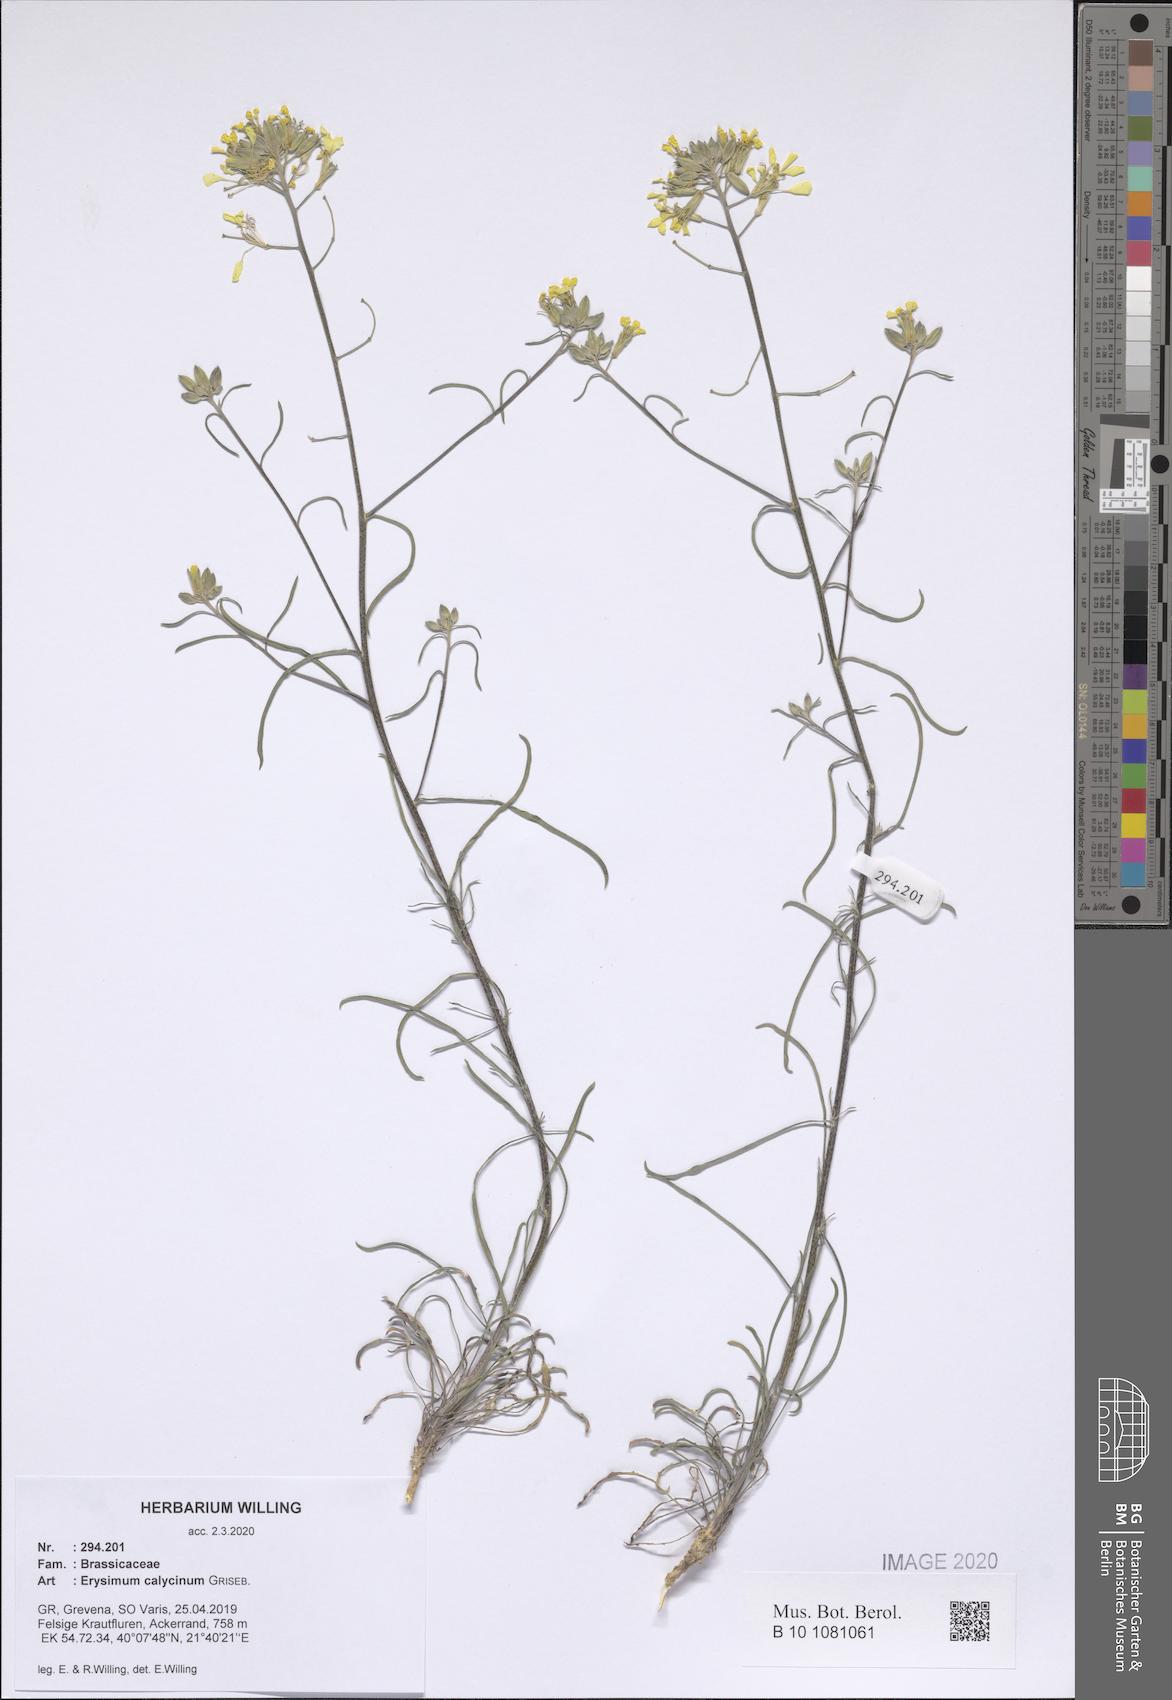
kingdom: Plantae
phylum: Tracheophyta
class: Magnoliopsida
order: Brassicales
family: Brassicaceae
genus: Erysimum
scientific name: Erysimum calycinum
